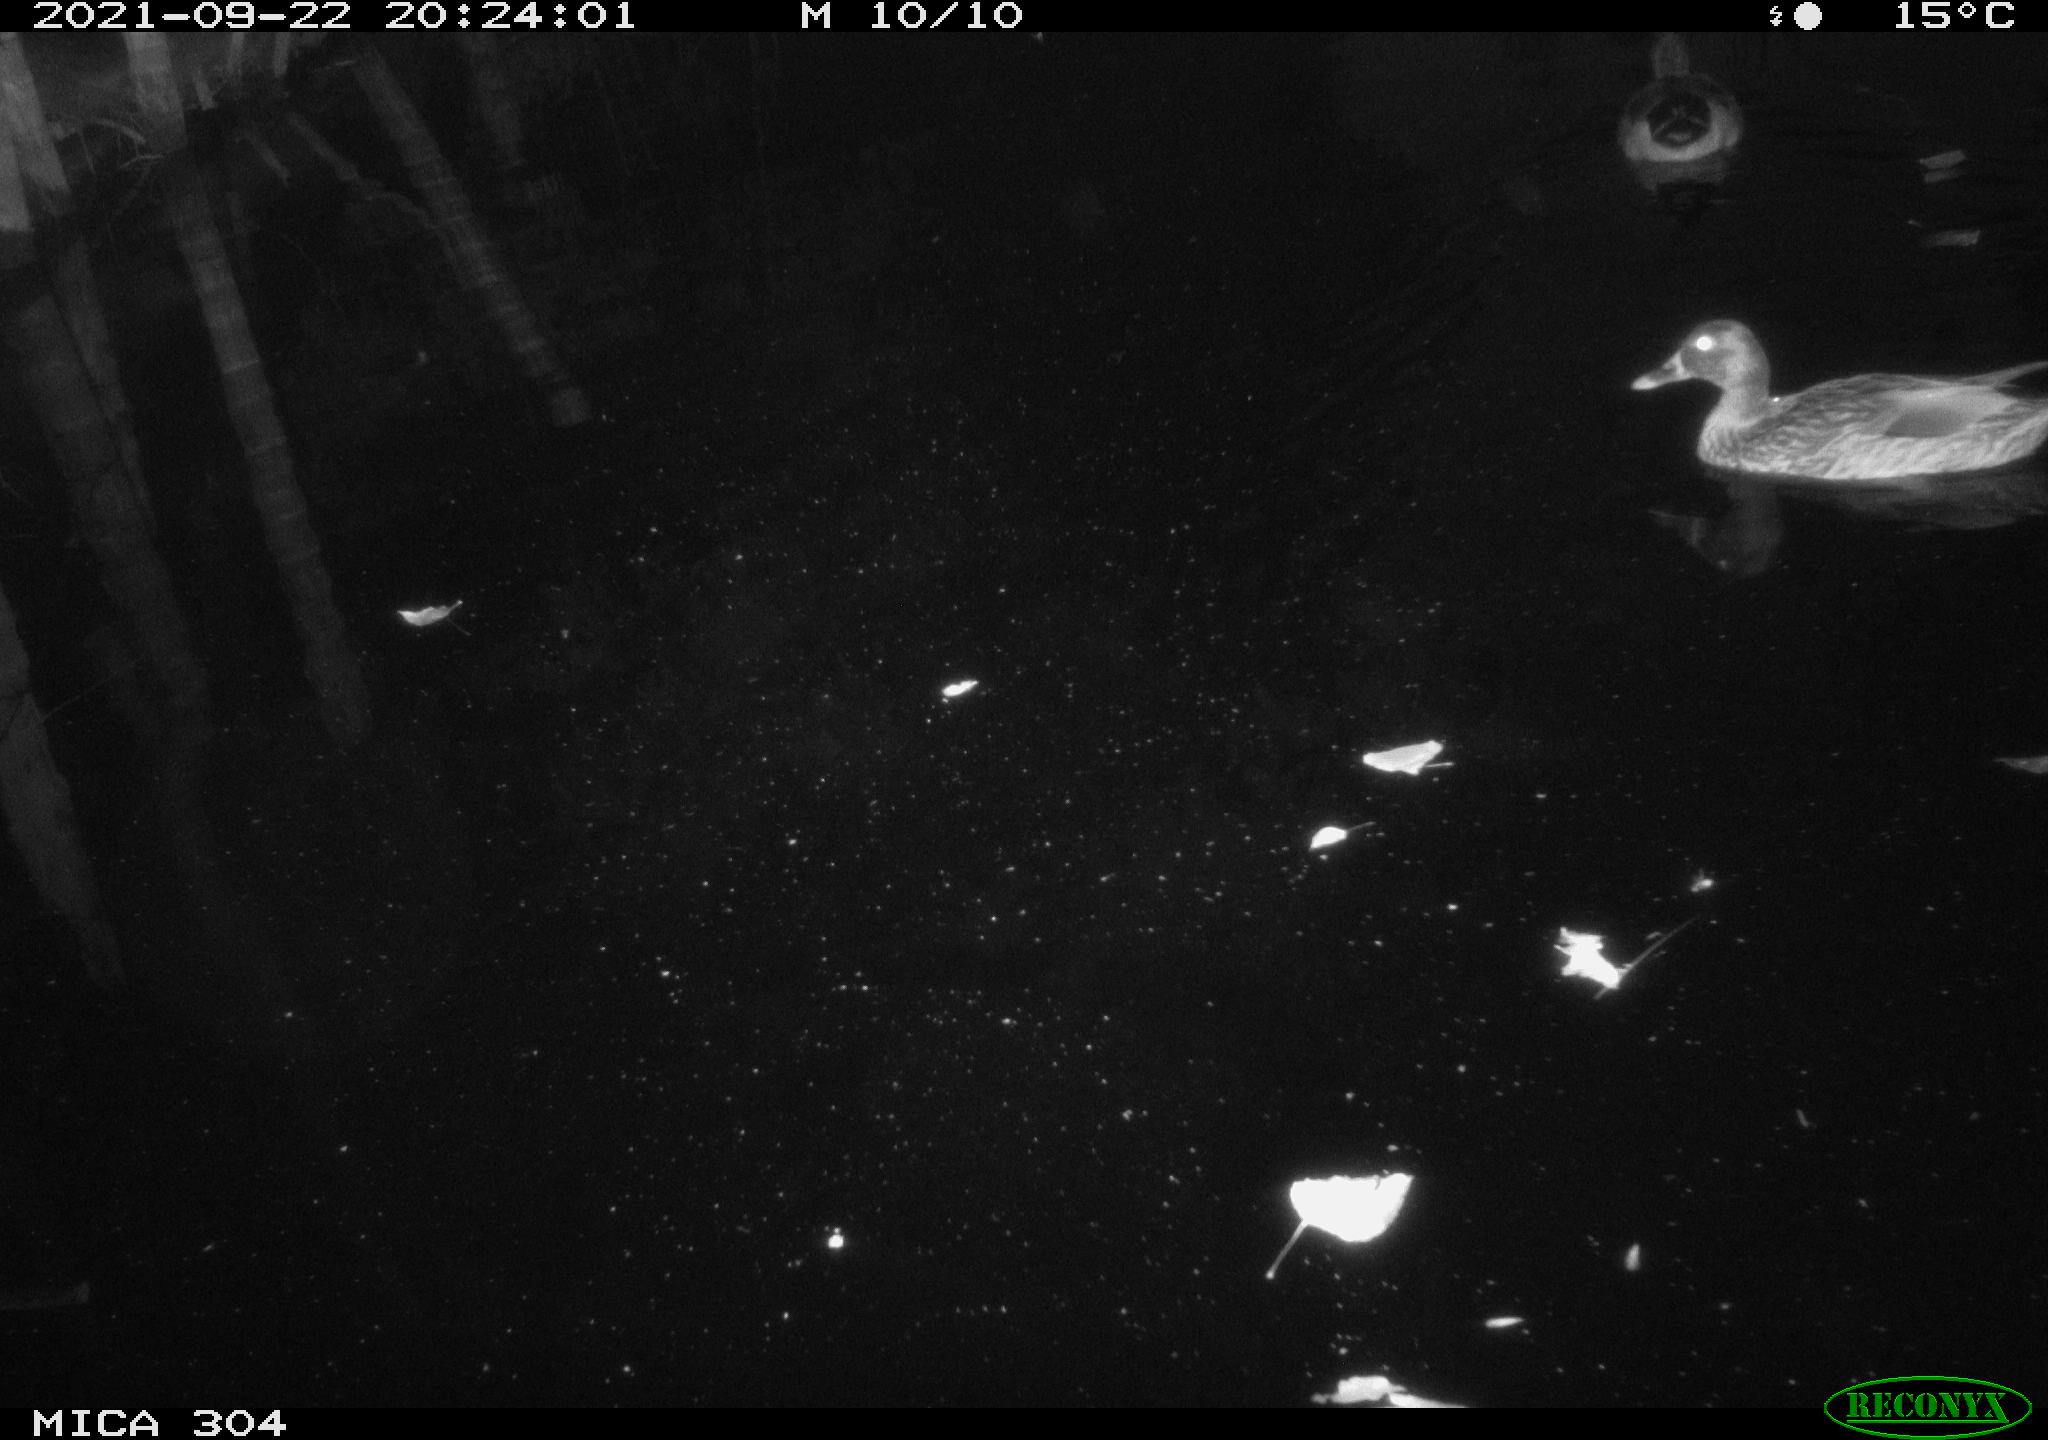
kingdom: Animalia
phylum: Chordata
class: Aves
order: Anseriformes
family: Anatidae
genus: Anas
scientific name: Anas platyrhynchos
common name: Mallard
